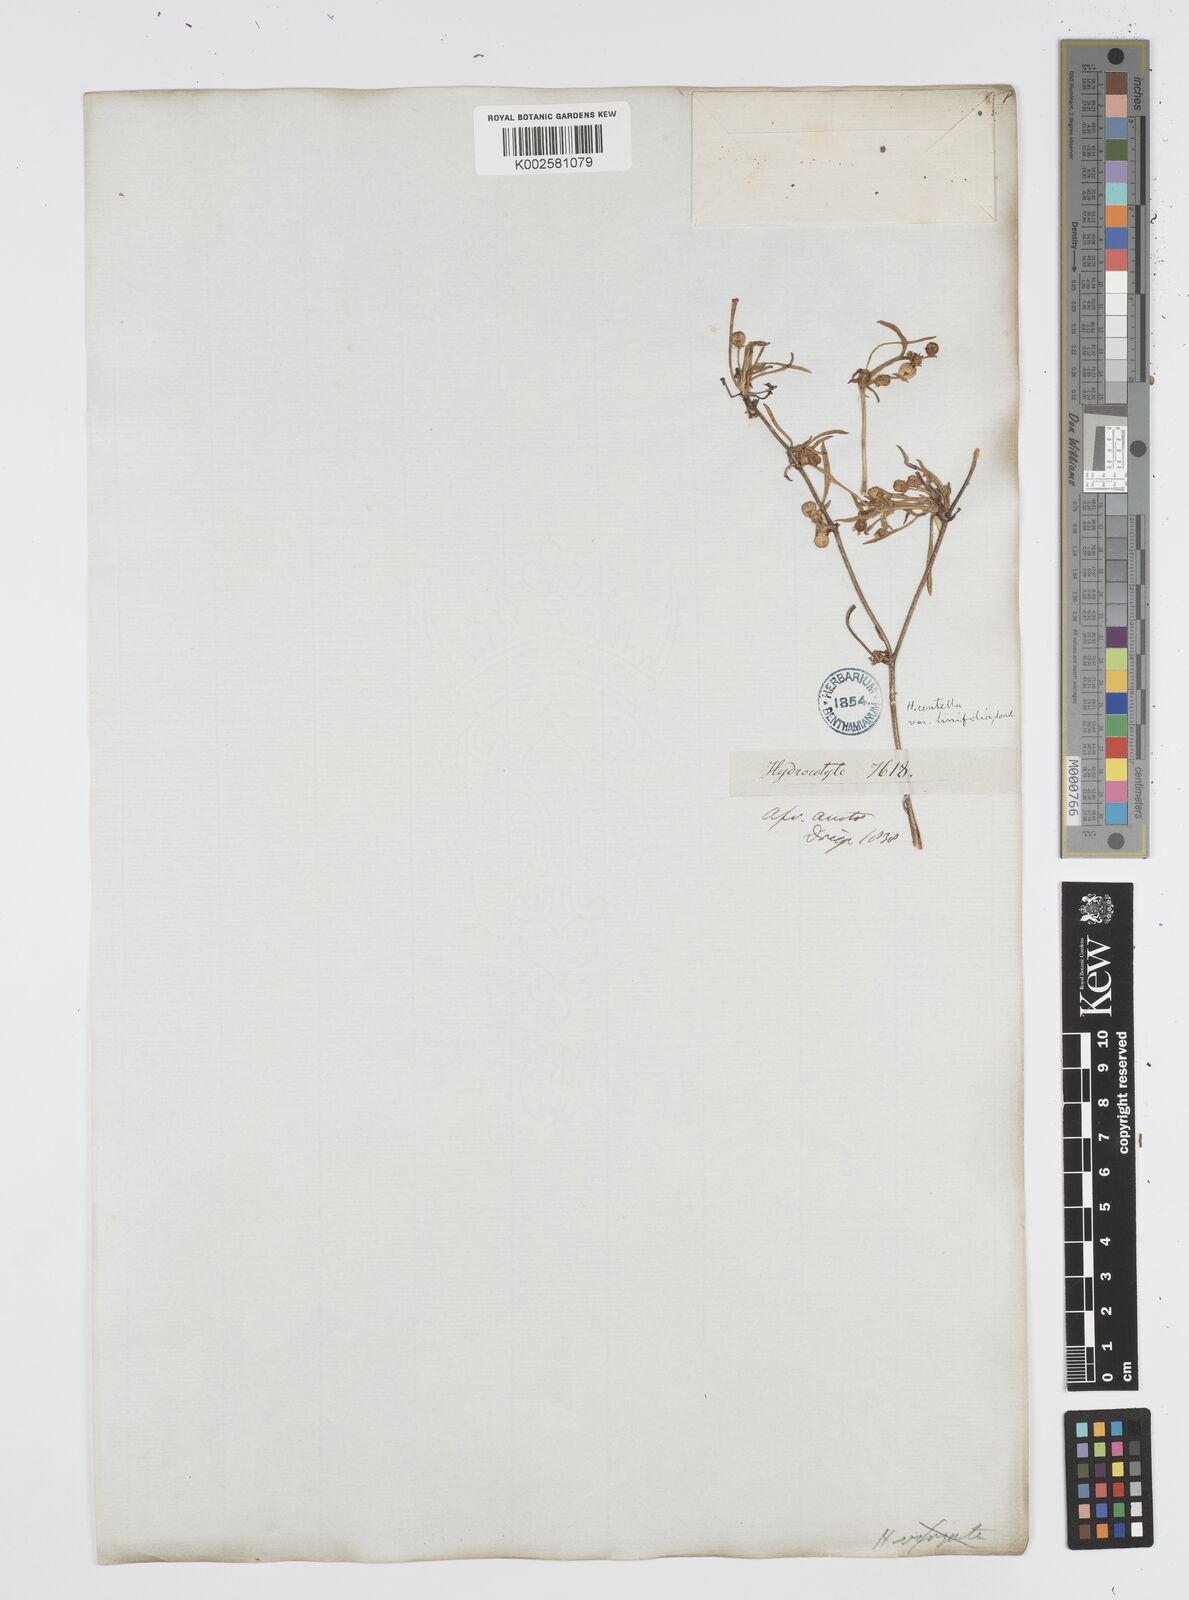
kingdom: Plantae
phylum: Tracheophyta
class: Magnoliopsida
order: Apiales
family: Apiaceae
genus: Centella
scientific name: Centella affinis
